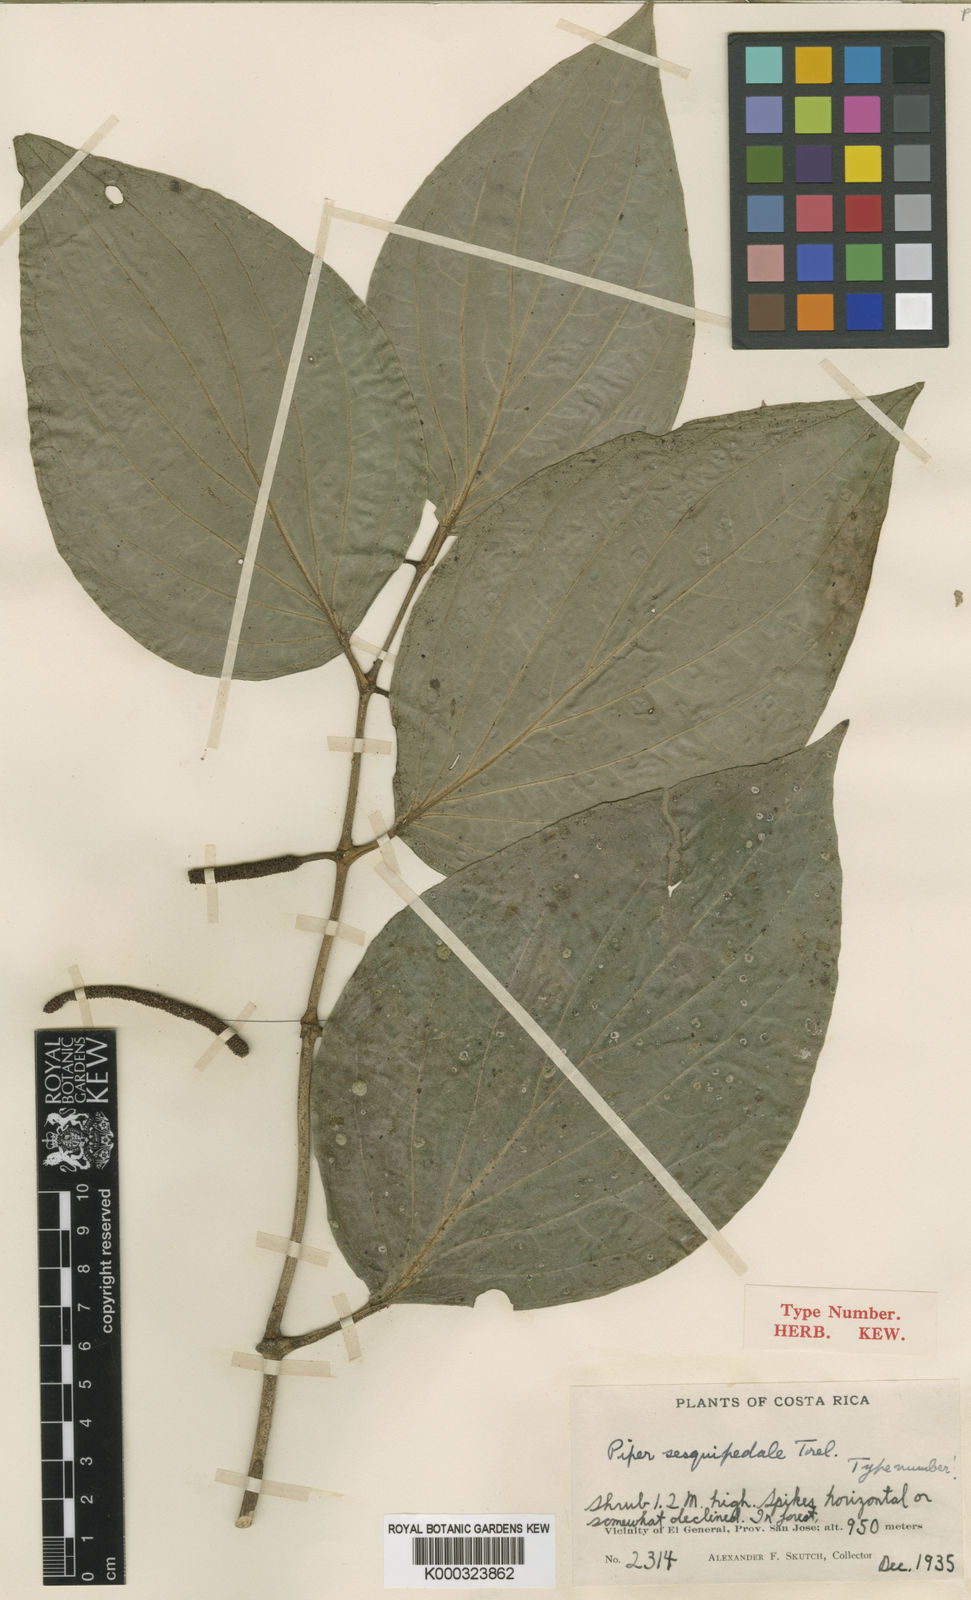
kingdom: Plantae
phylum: Tracheophyta
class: Magnoliopsida
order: Piperales
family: Piperaceae
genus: Piper
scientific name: Piper nudifolium
